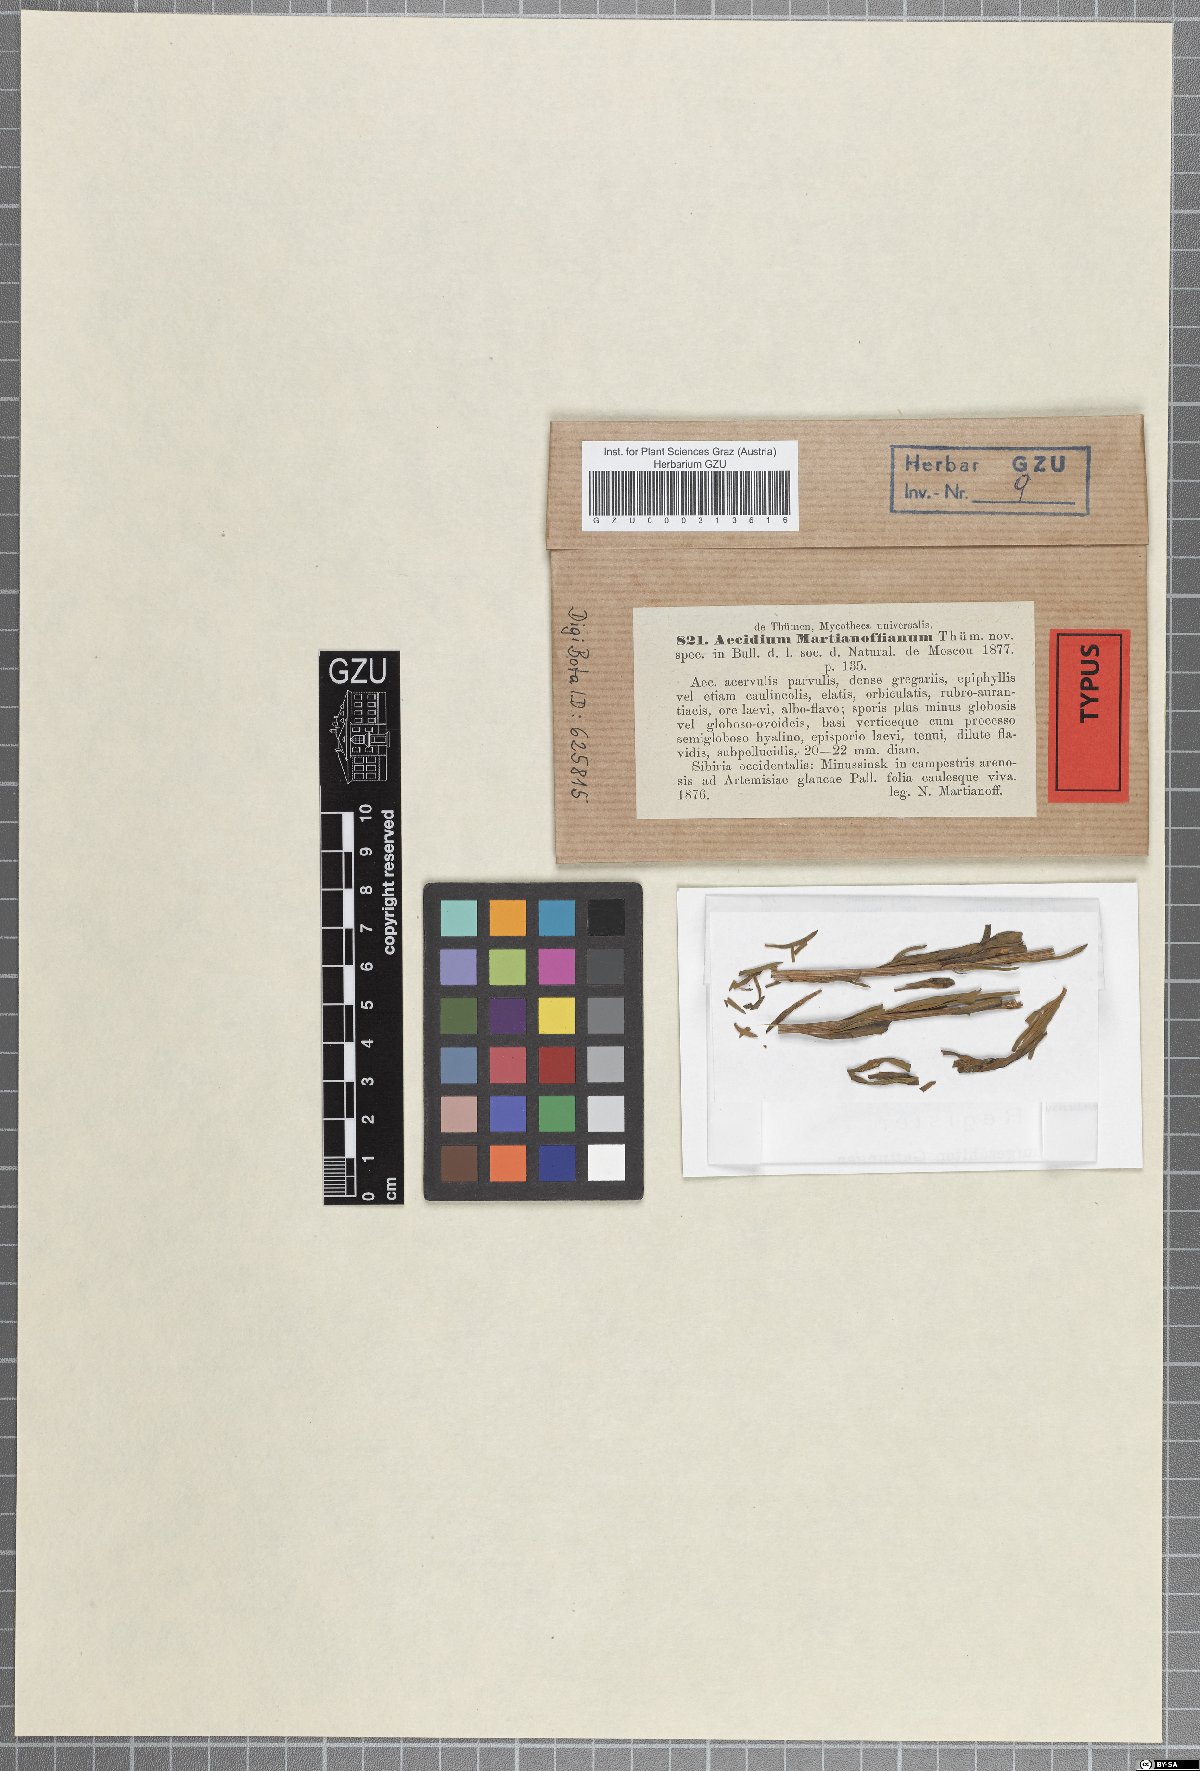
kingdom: Fungi
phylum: Basidiomycota
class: Pucciniomycetes
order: Pucciniales
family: Pucciniaceae
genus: Puccinia
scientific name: Puccinia martianoffiana
